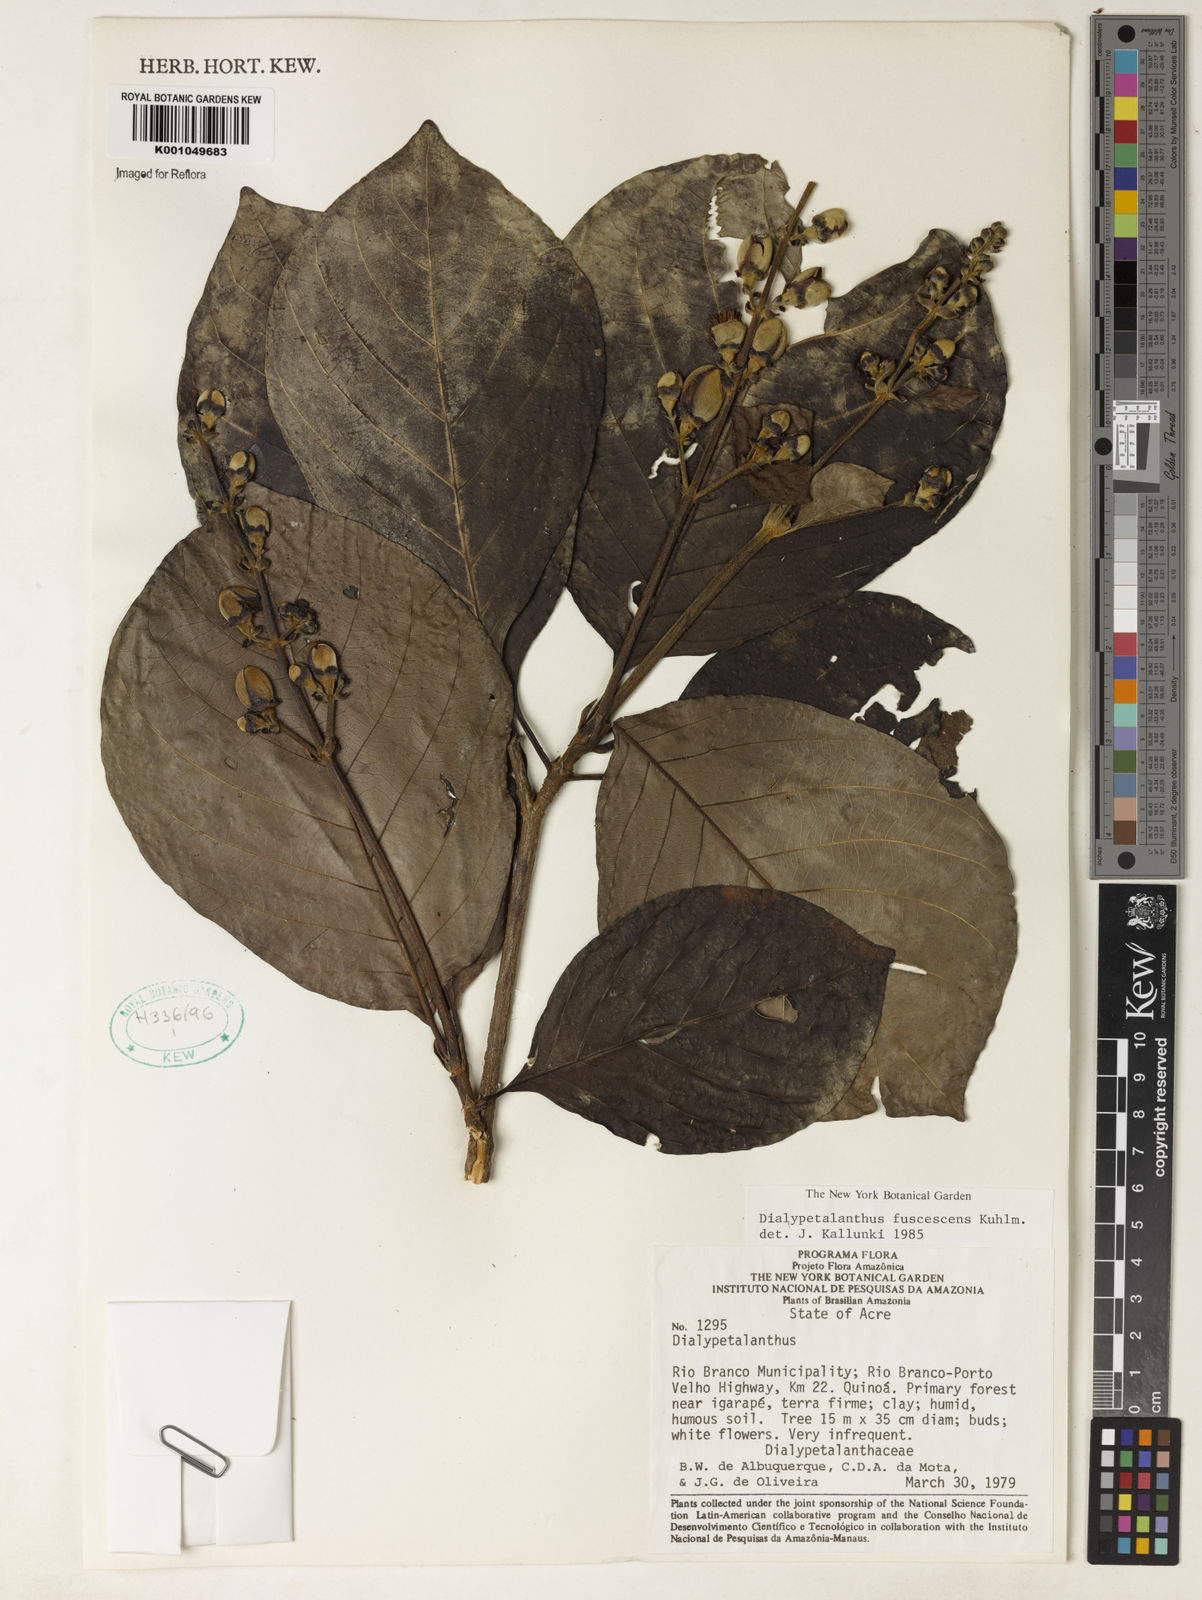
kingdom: Plantae
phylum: Tracheophyta
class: Magnoliopsida
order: Gentianales
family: Rubiaceae
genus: Dialypetalanthus
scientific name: Dialypetalanthus fuscescens
